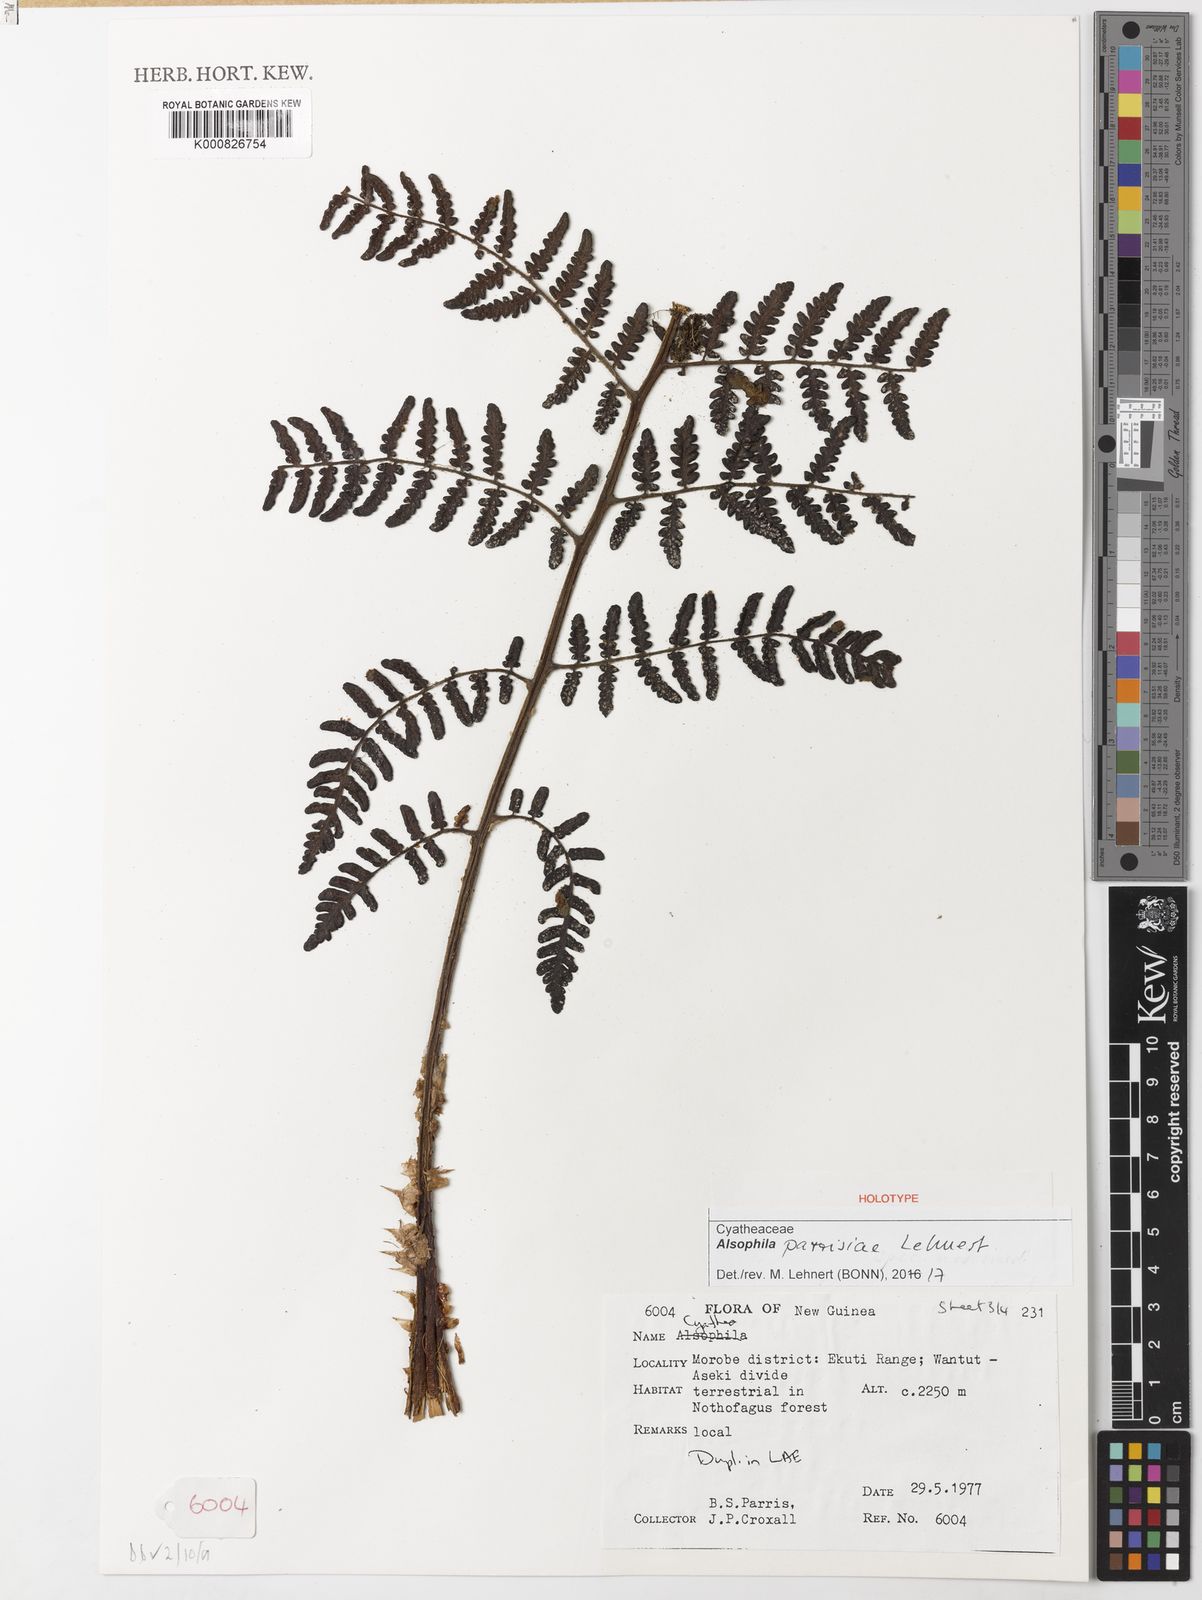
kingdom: Plantae
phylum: Tracheophyta
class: Polypodiopsida
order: Cyatheales
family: Cyatheaceae
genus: Alsophila
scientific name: Alsophila parrisiae
